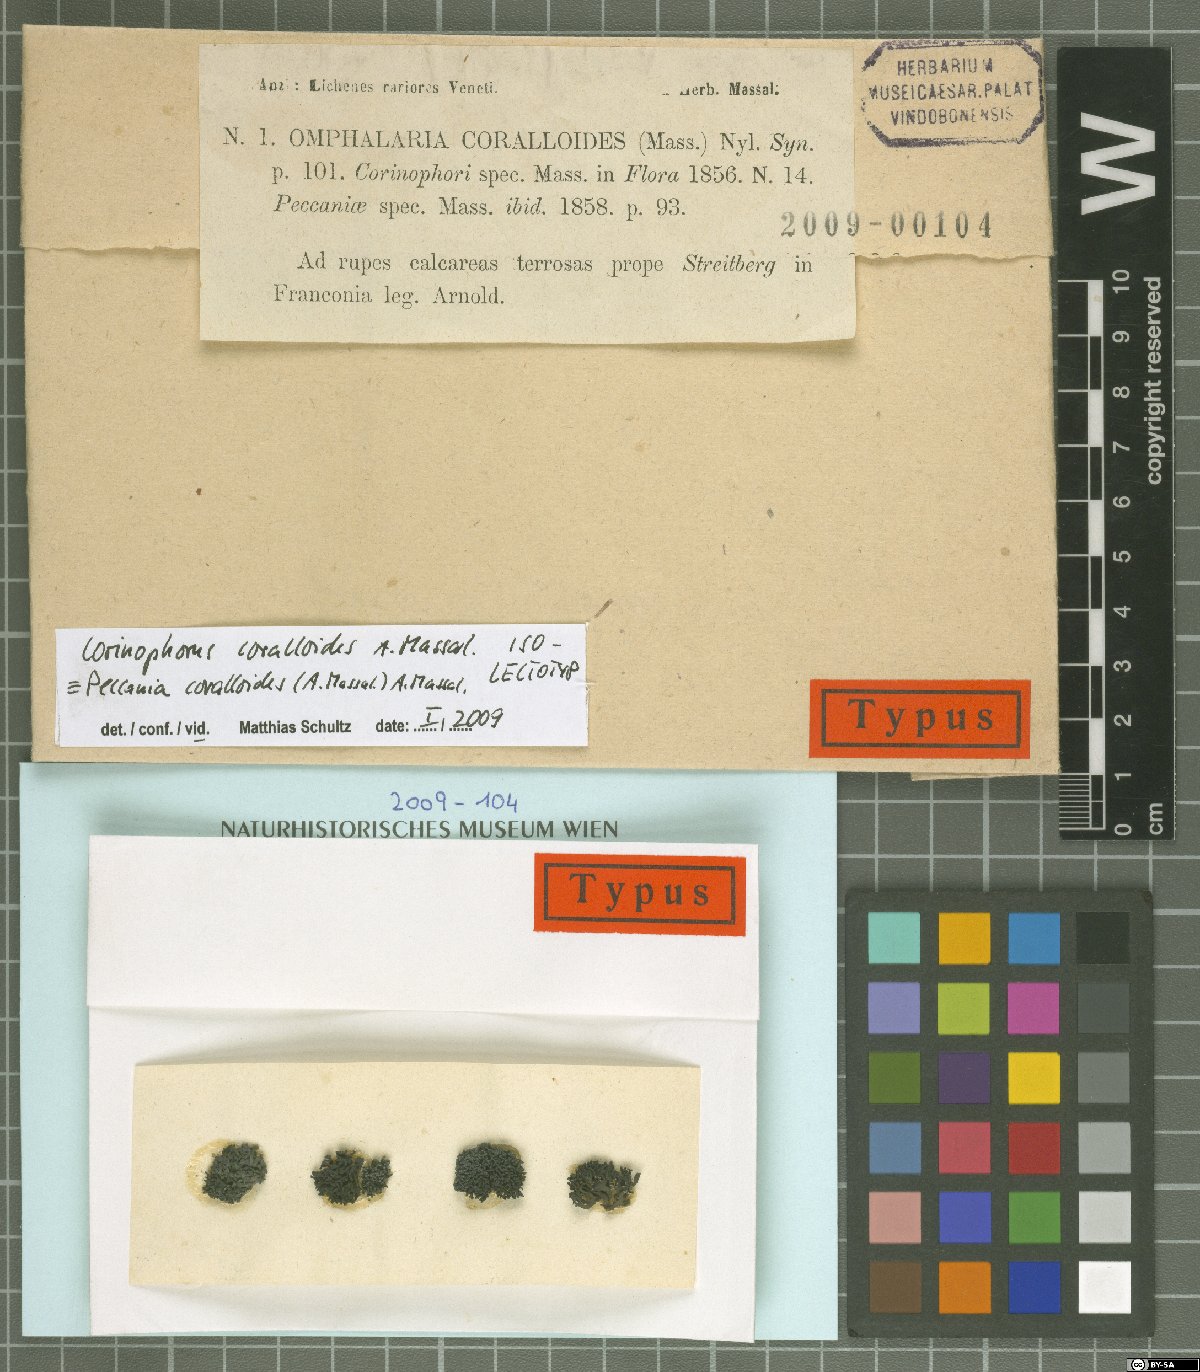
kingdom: Fungi
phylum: Ascomycota
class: Lichinomycetes
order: Lichinales
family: Lichinaceae
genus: Peccania
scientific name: Peccania coralloides
